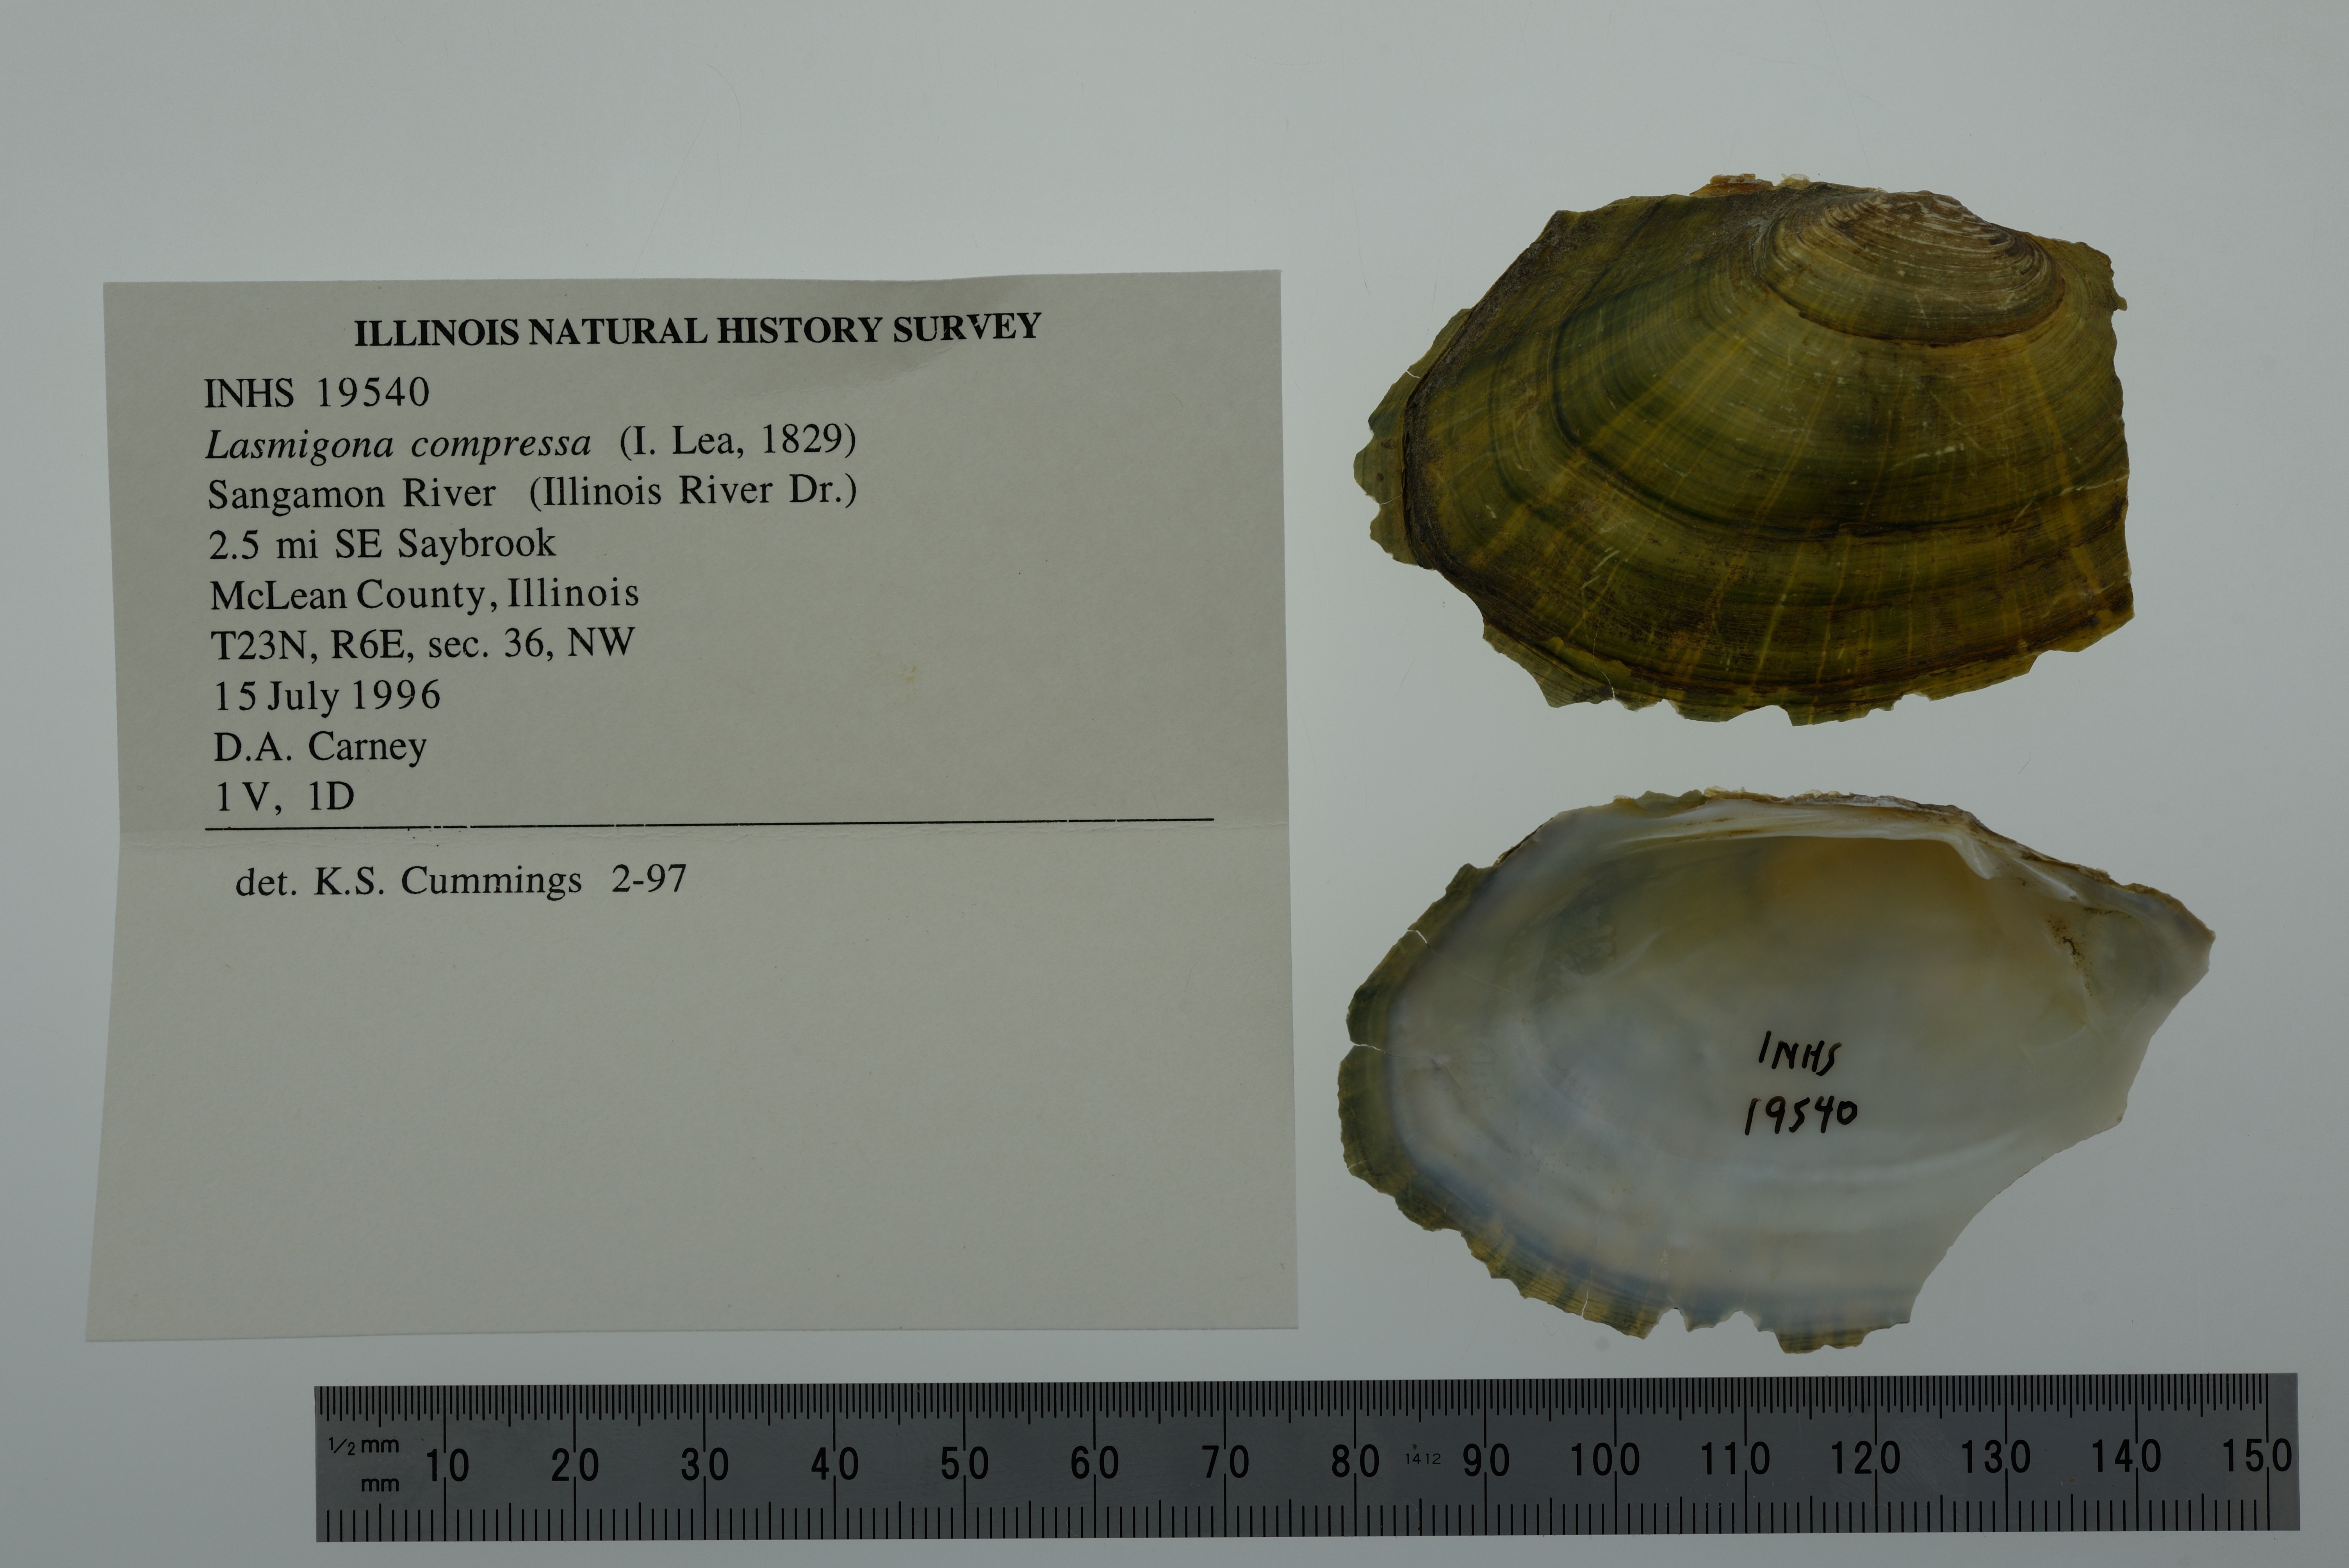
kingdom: Animalia
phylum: Mollusca
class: Bivalvia
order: Unionida
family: Unionidae
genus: Lasmigona
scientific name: Lasmigona compressa
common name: Creek heelsplitter
